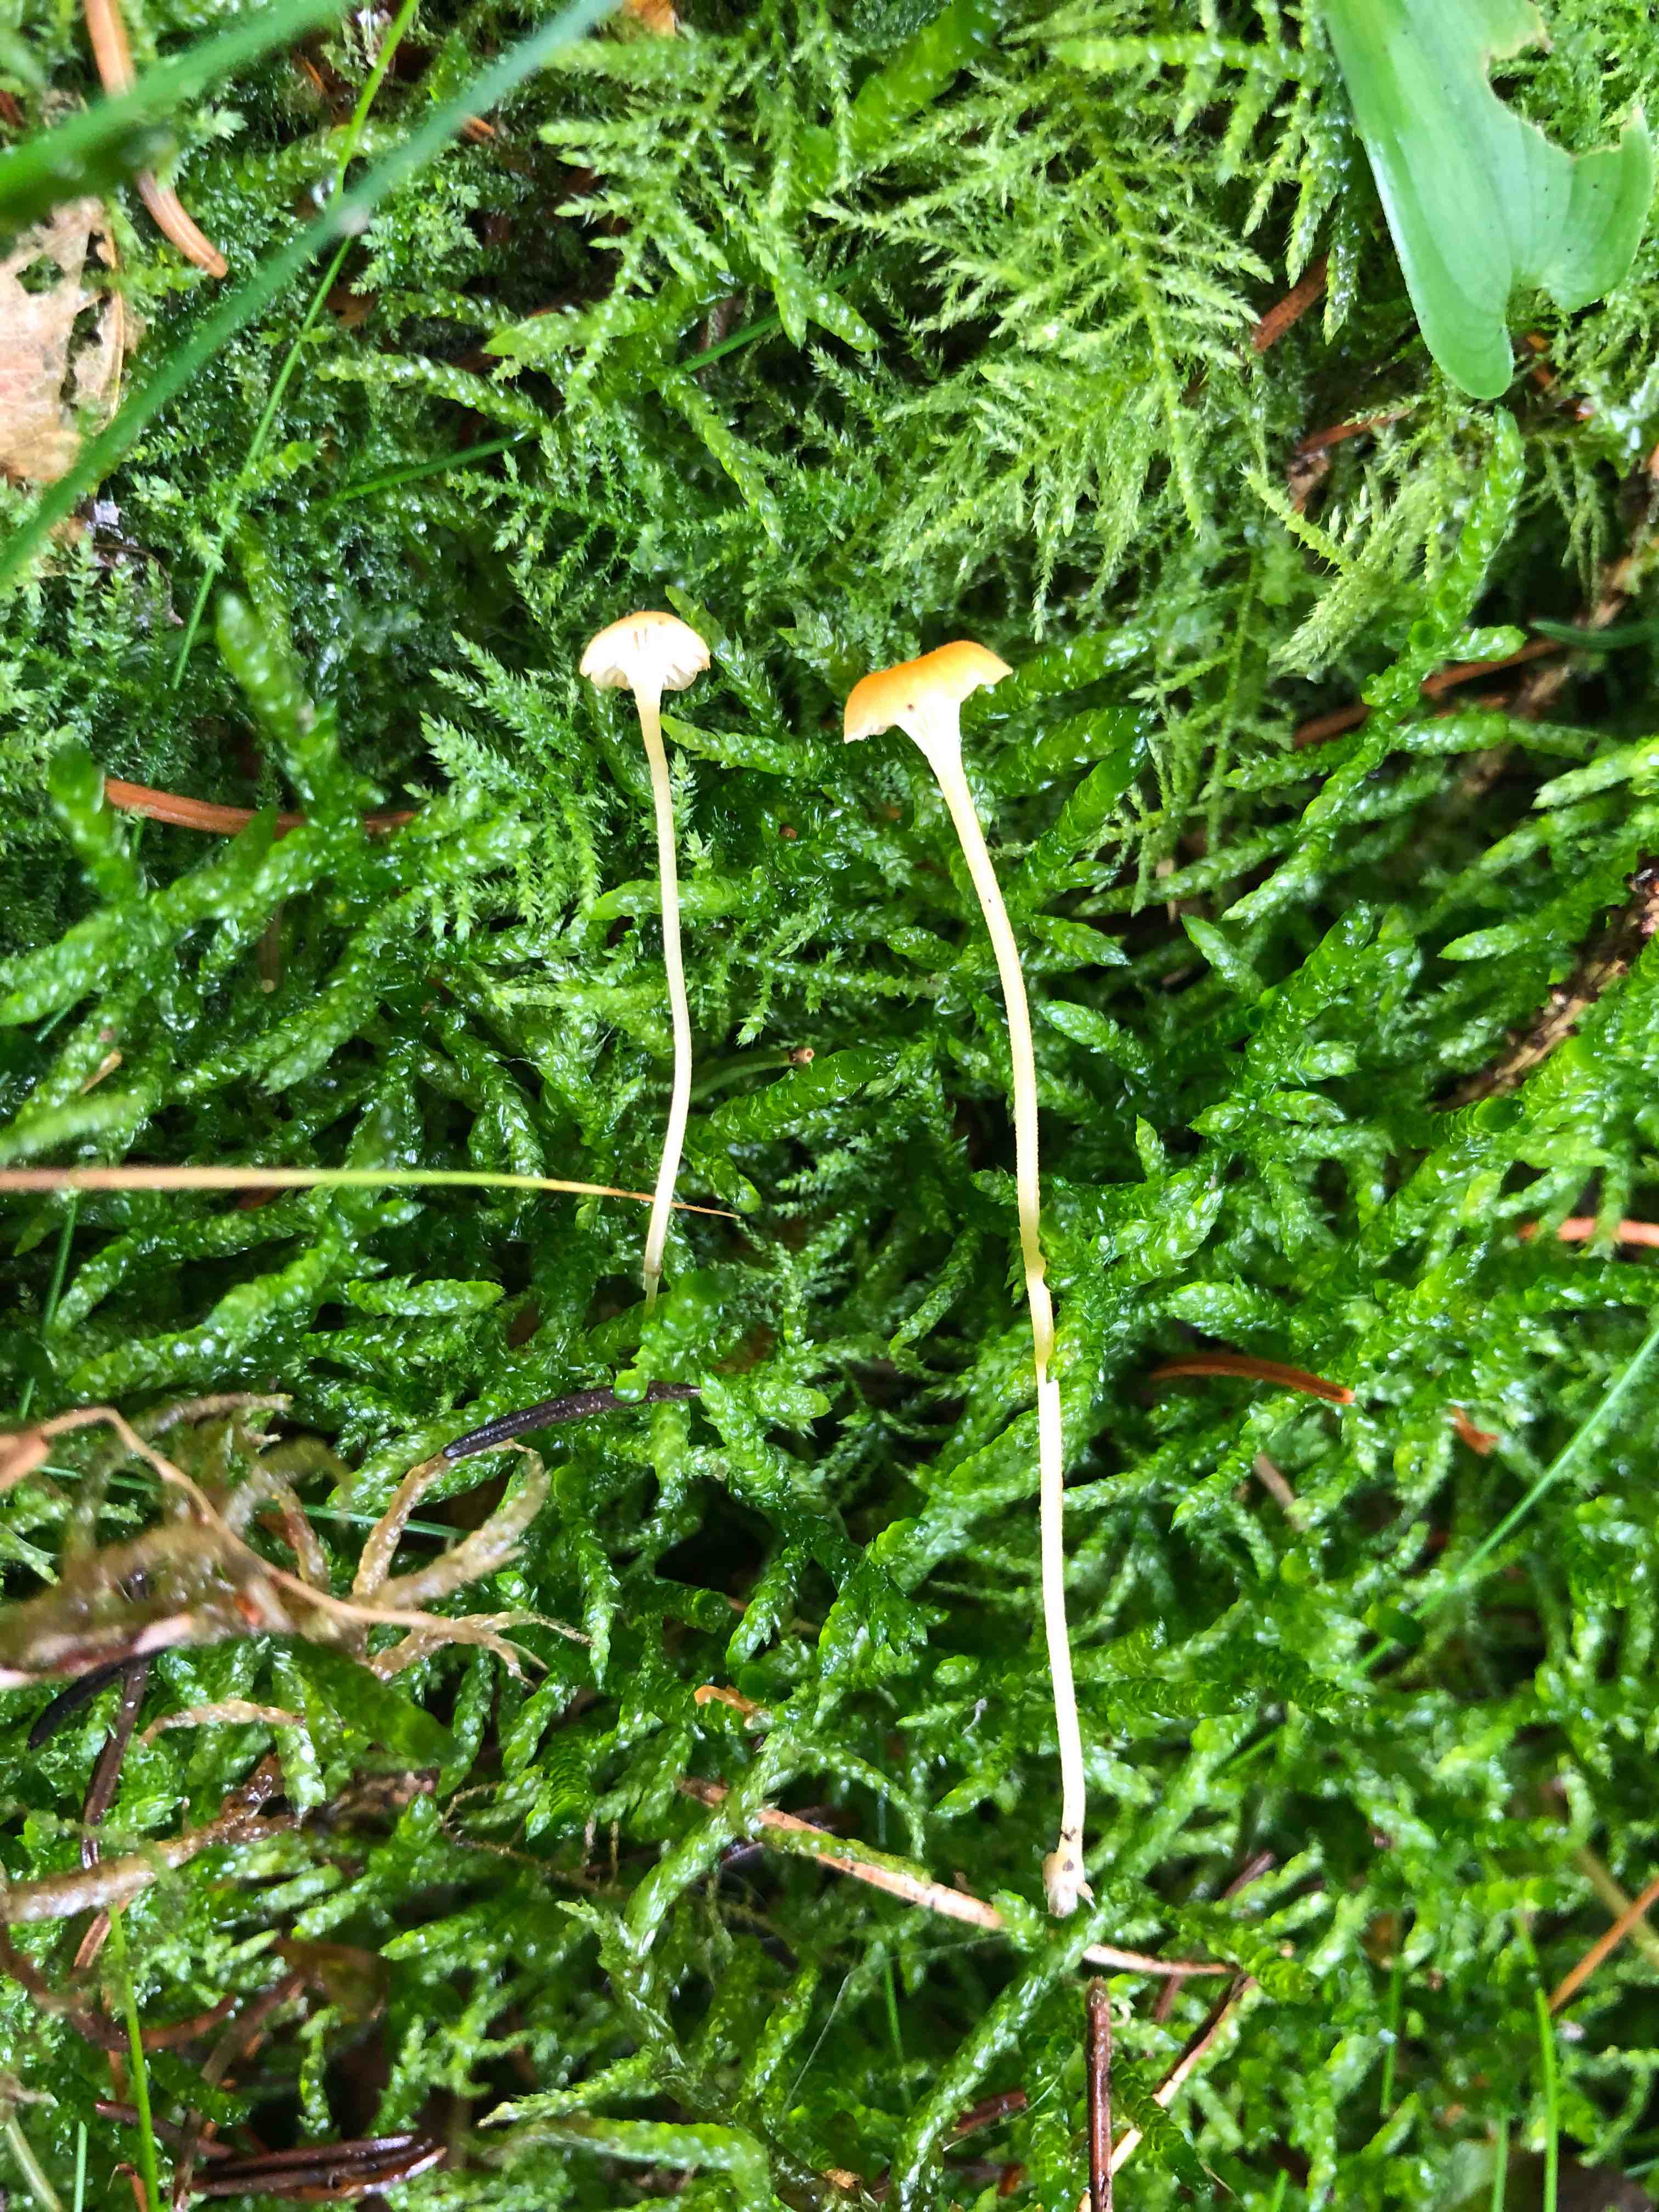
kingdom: Fungi
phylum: Basidiomycota
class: Agaricomycetes
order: Hymenochaetales
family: Rickenellaceae
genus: Rickenella
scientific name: Rickenella fibula
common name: orange mosnavlehat
